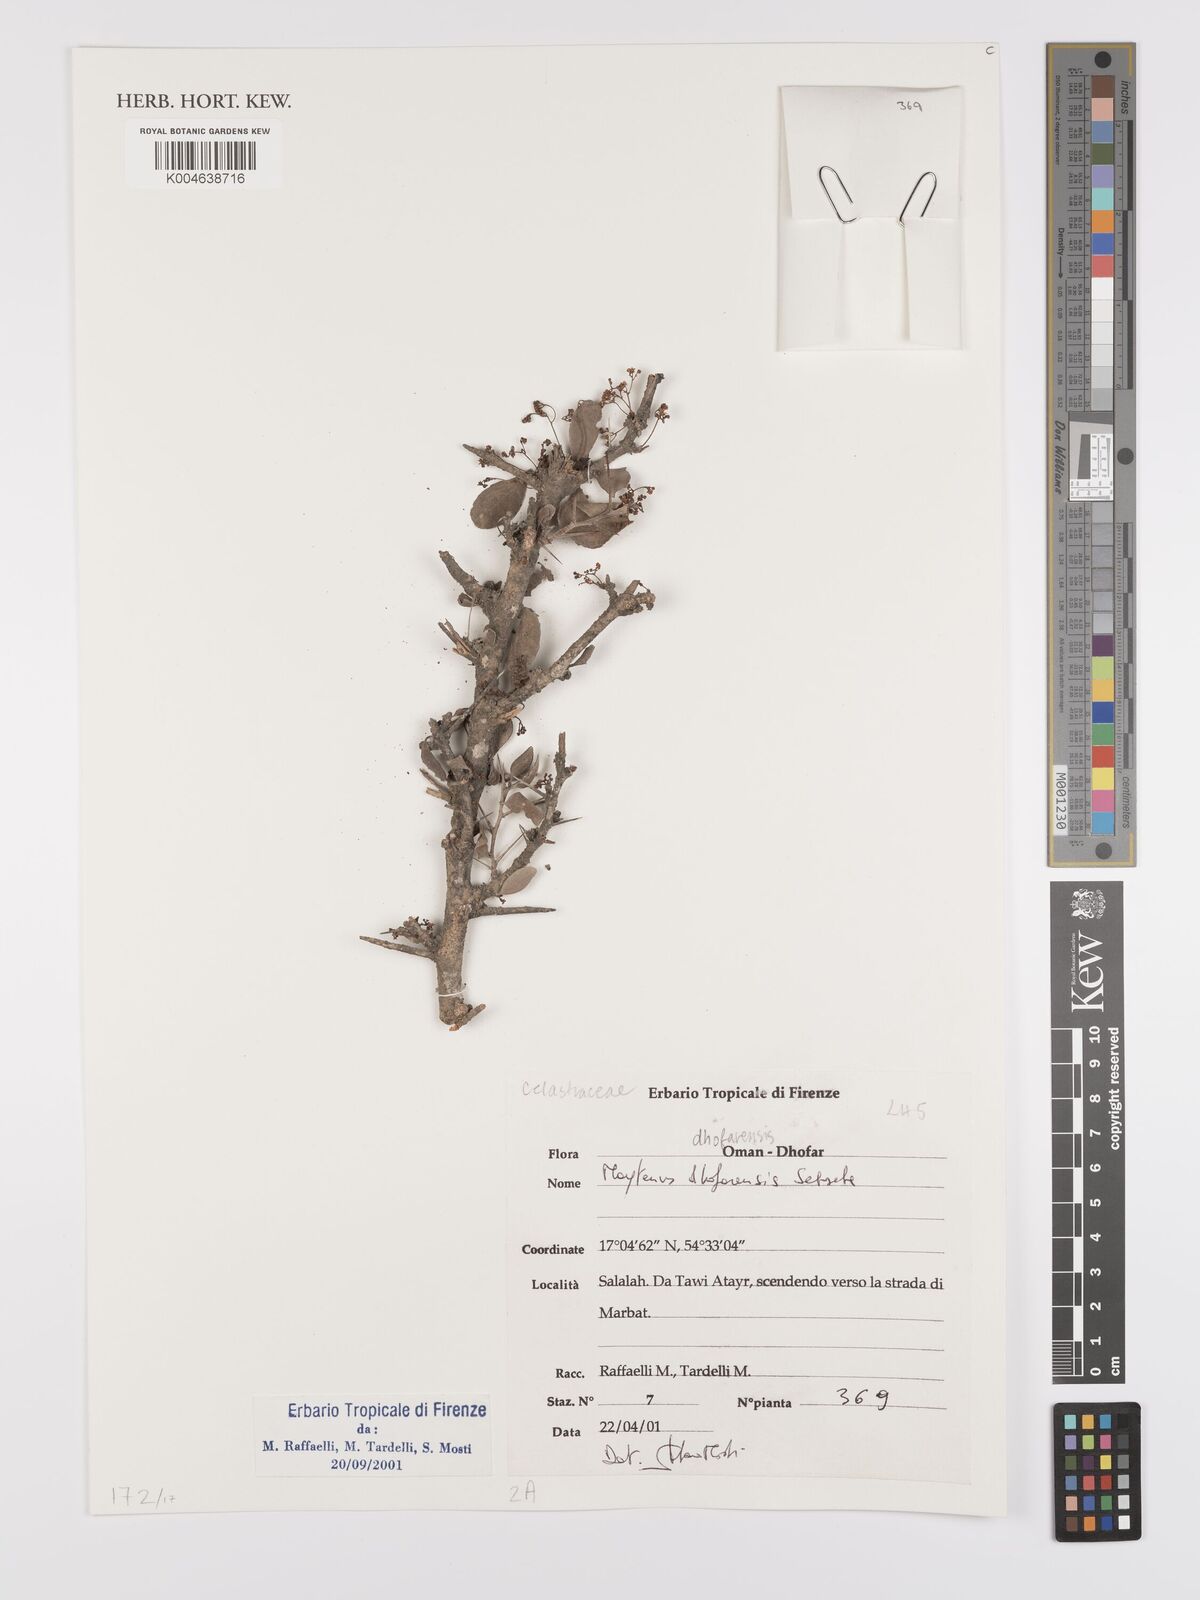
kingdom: Plantae
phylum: Tracheophyta
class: Magnoliopsida
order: Celastrales
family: Celastraceae
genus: Gymnosporia
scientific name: Gymnosporia dhofarensis
